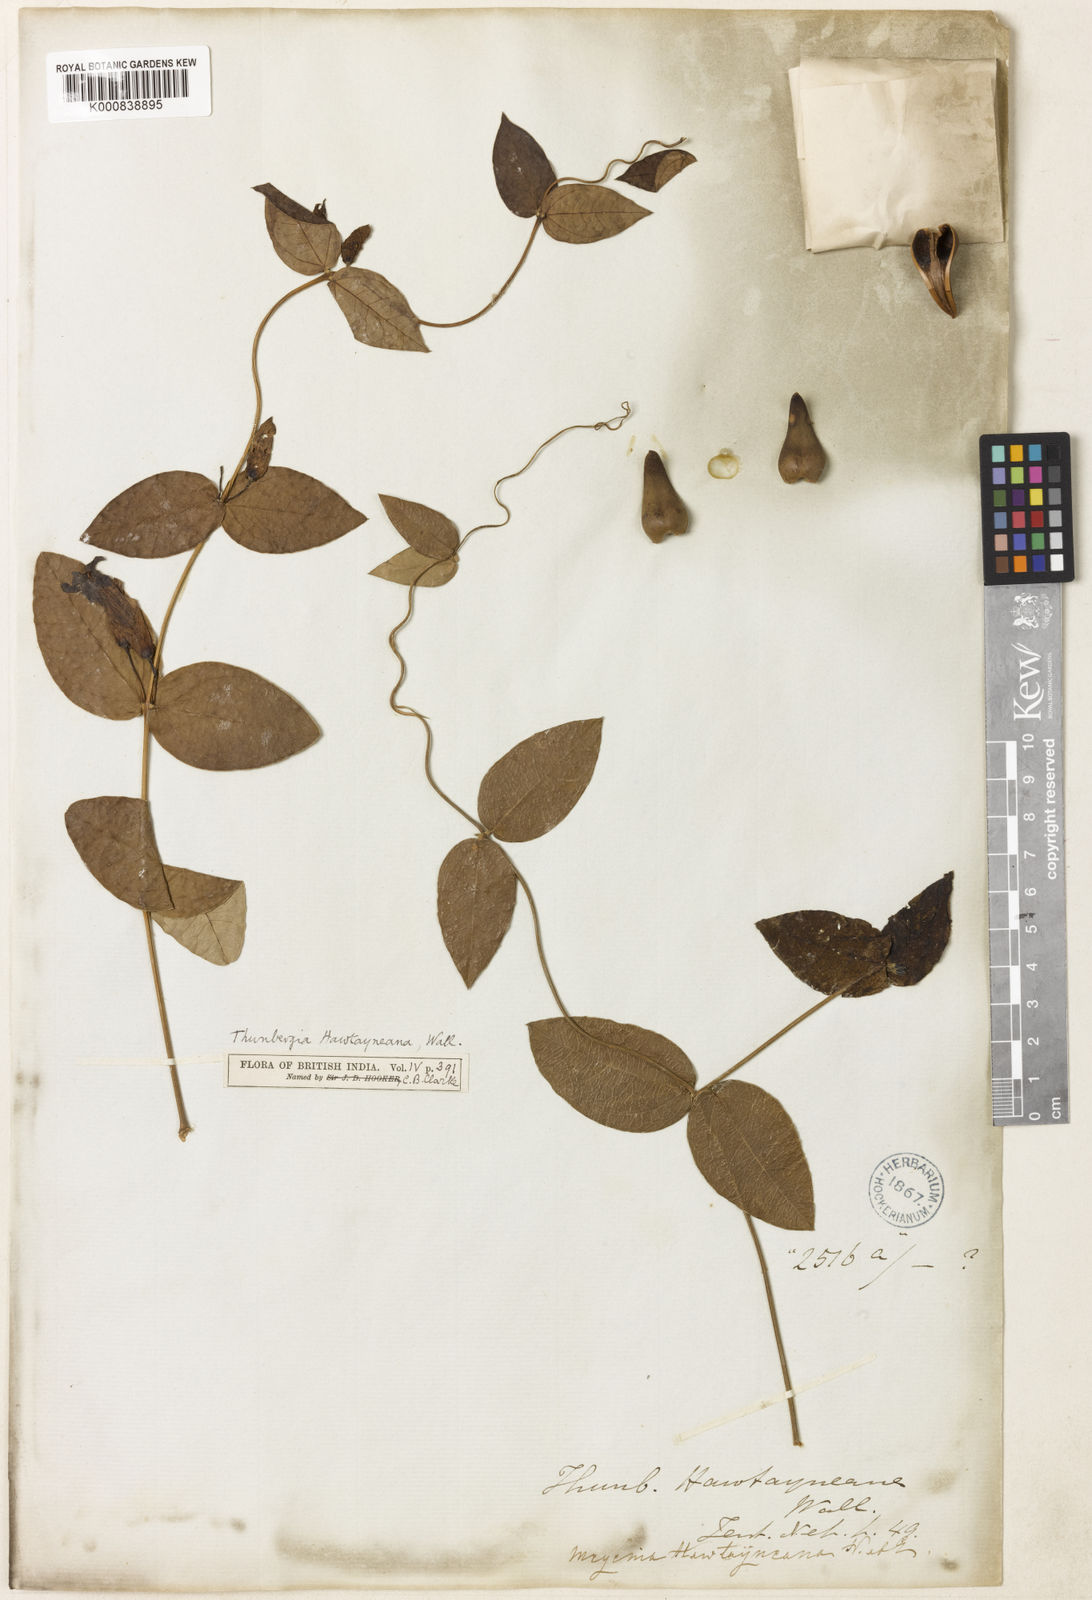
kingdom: Plantae
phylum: Tracheophyta
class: Magnoliopsida
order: Lamiales
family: Acanthaceae
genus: Meyenia
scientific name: Meyenia hawtayneana
